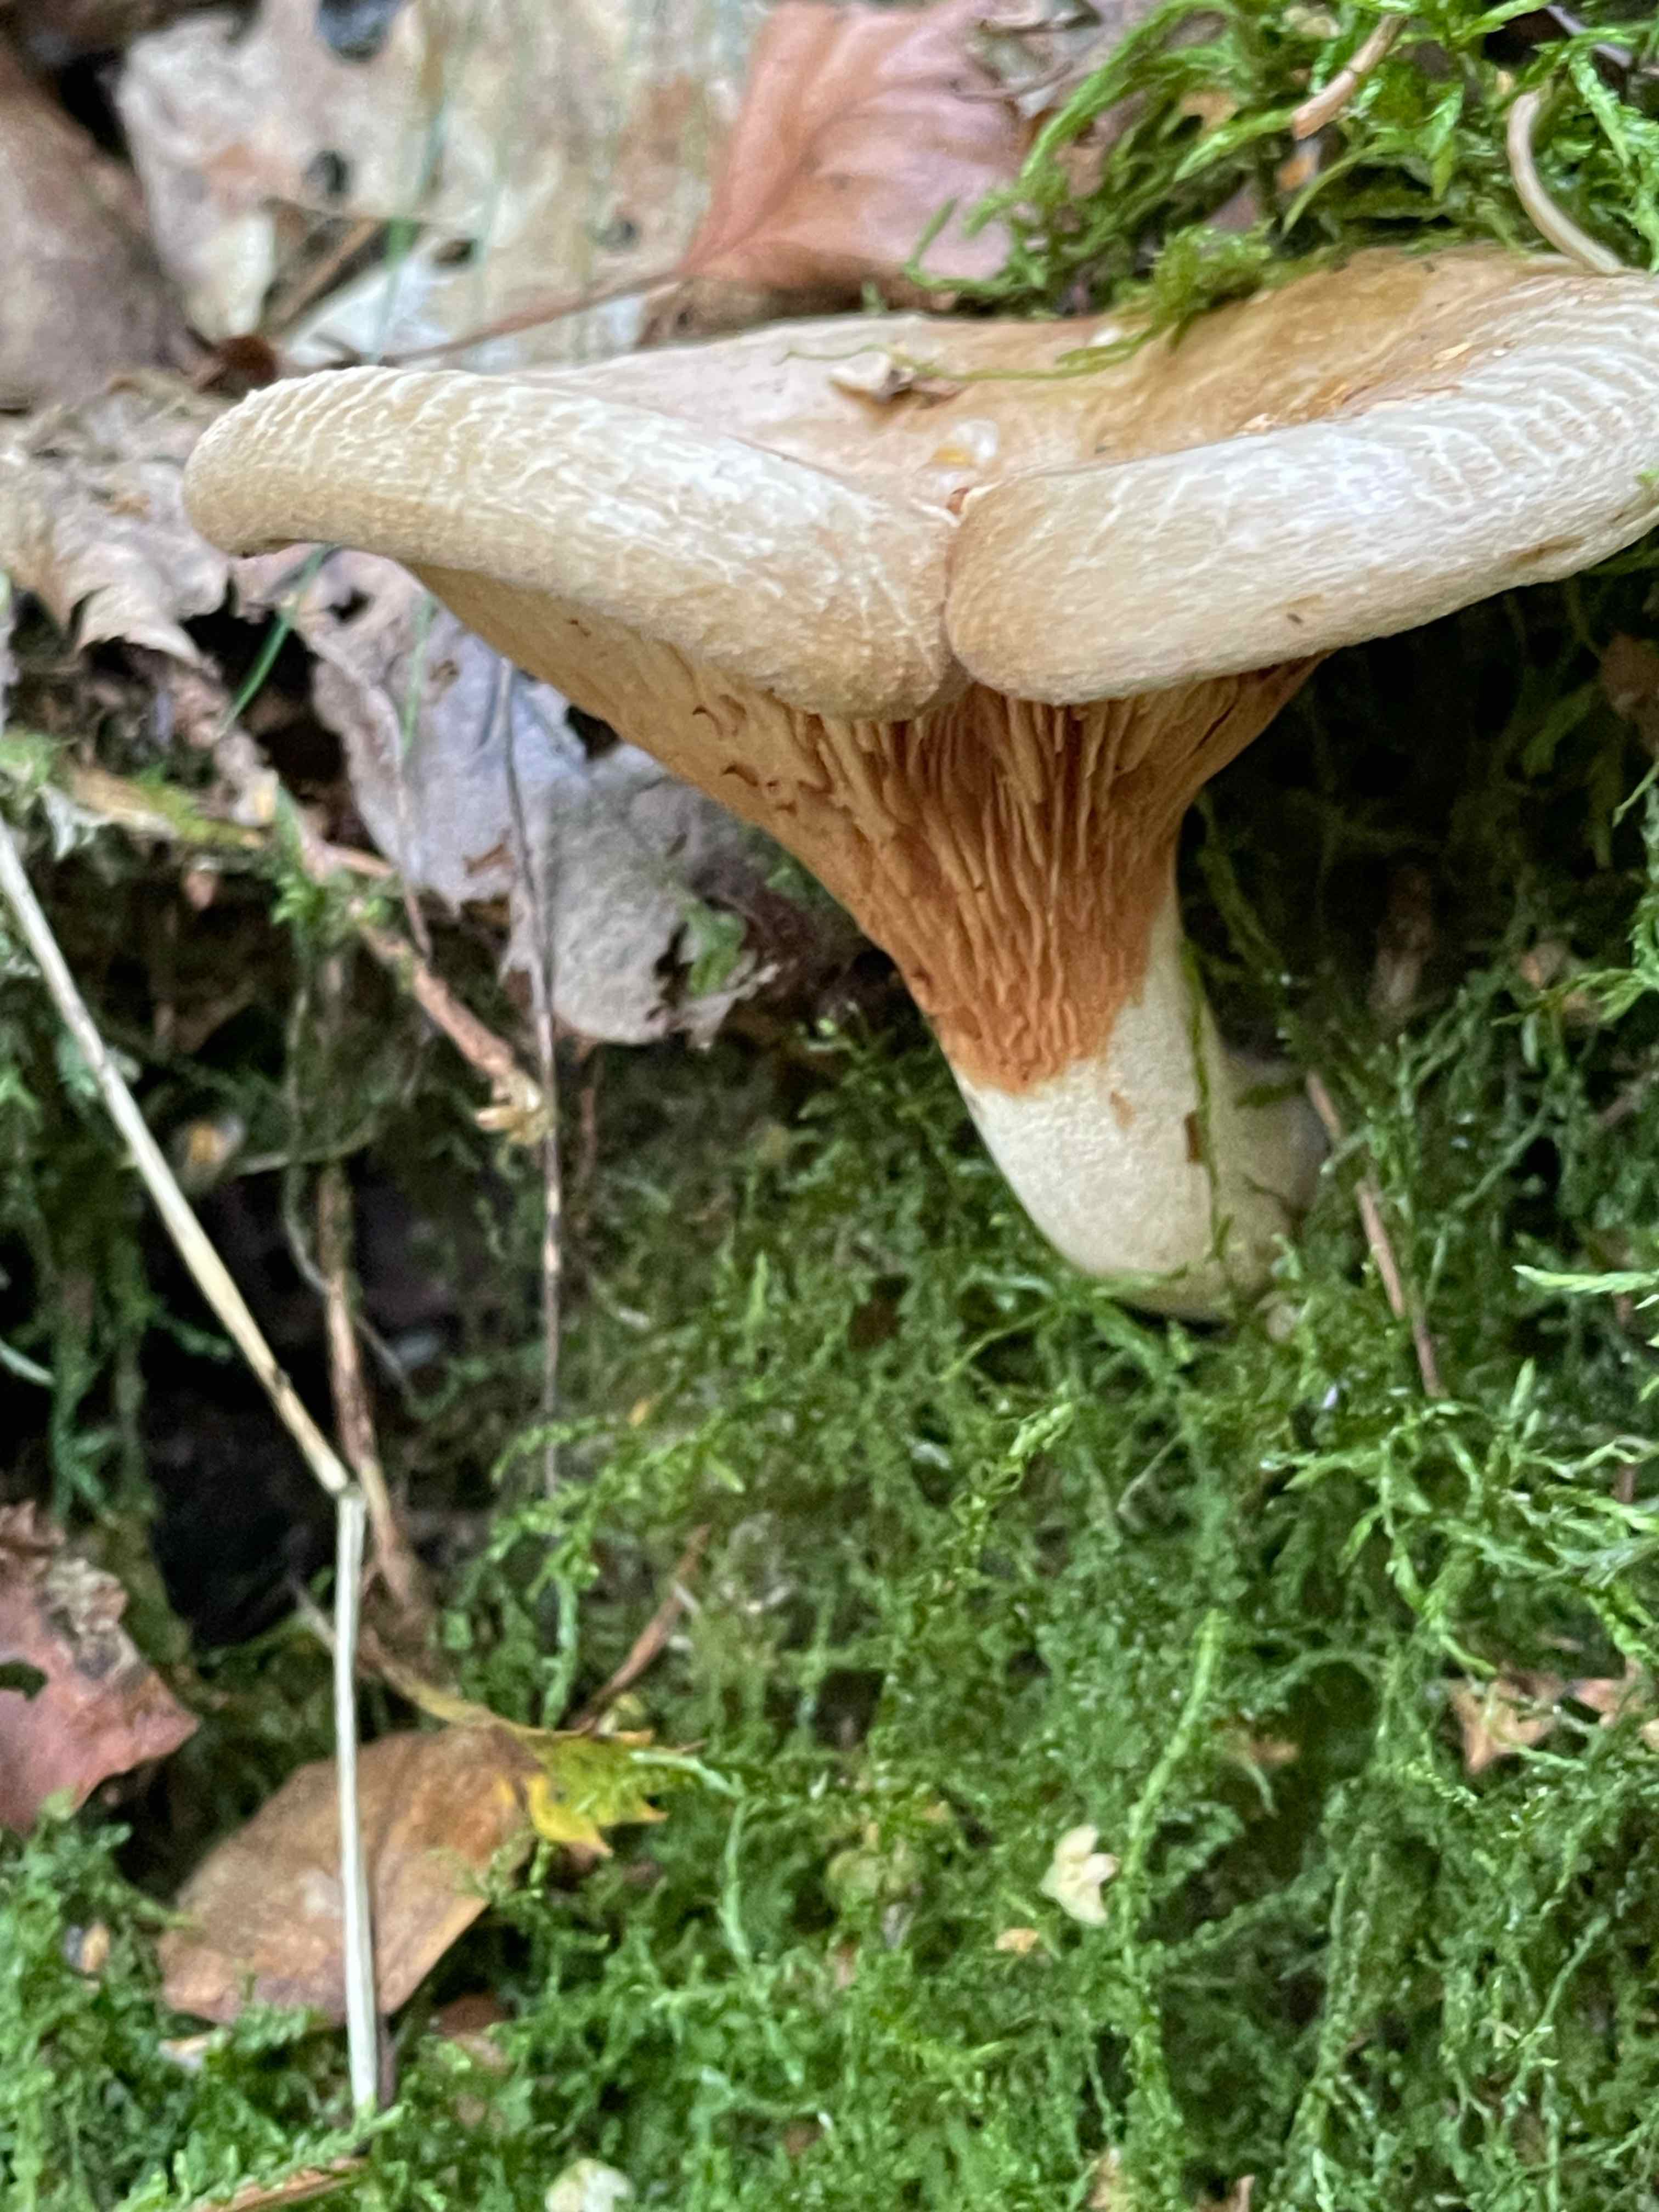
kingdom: Fungi
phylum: Basidiomycota
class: Agaricomycetes
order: Boletales
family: Paxillaceae
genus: Paxillus
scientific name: Paxillus involutus
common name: almindelig netbladhat
